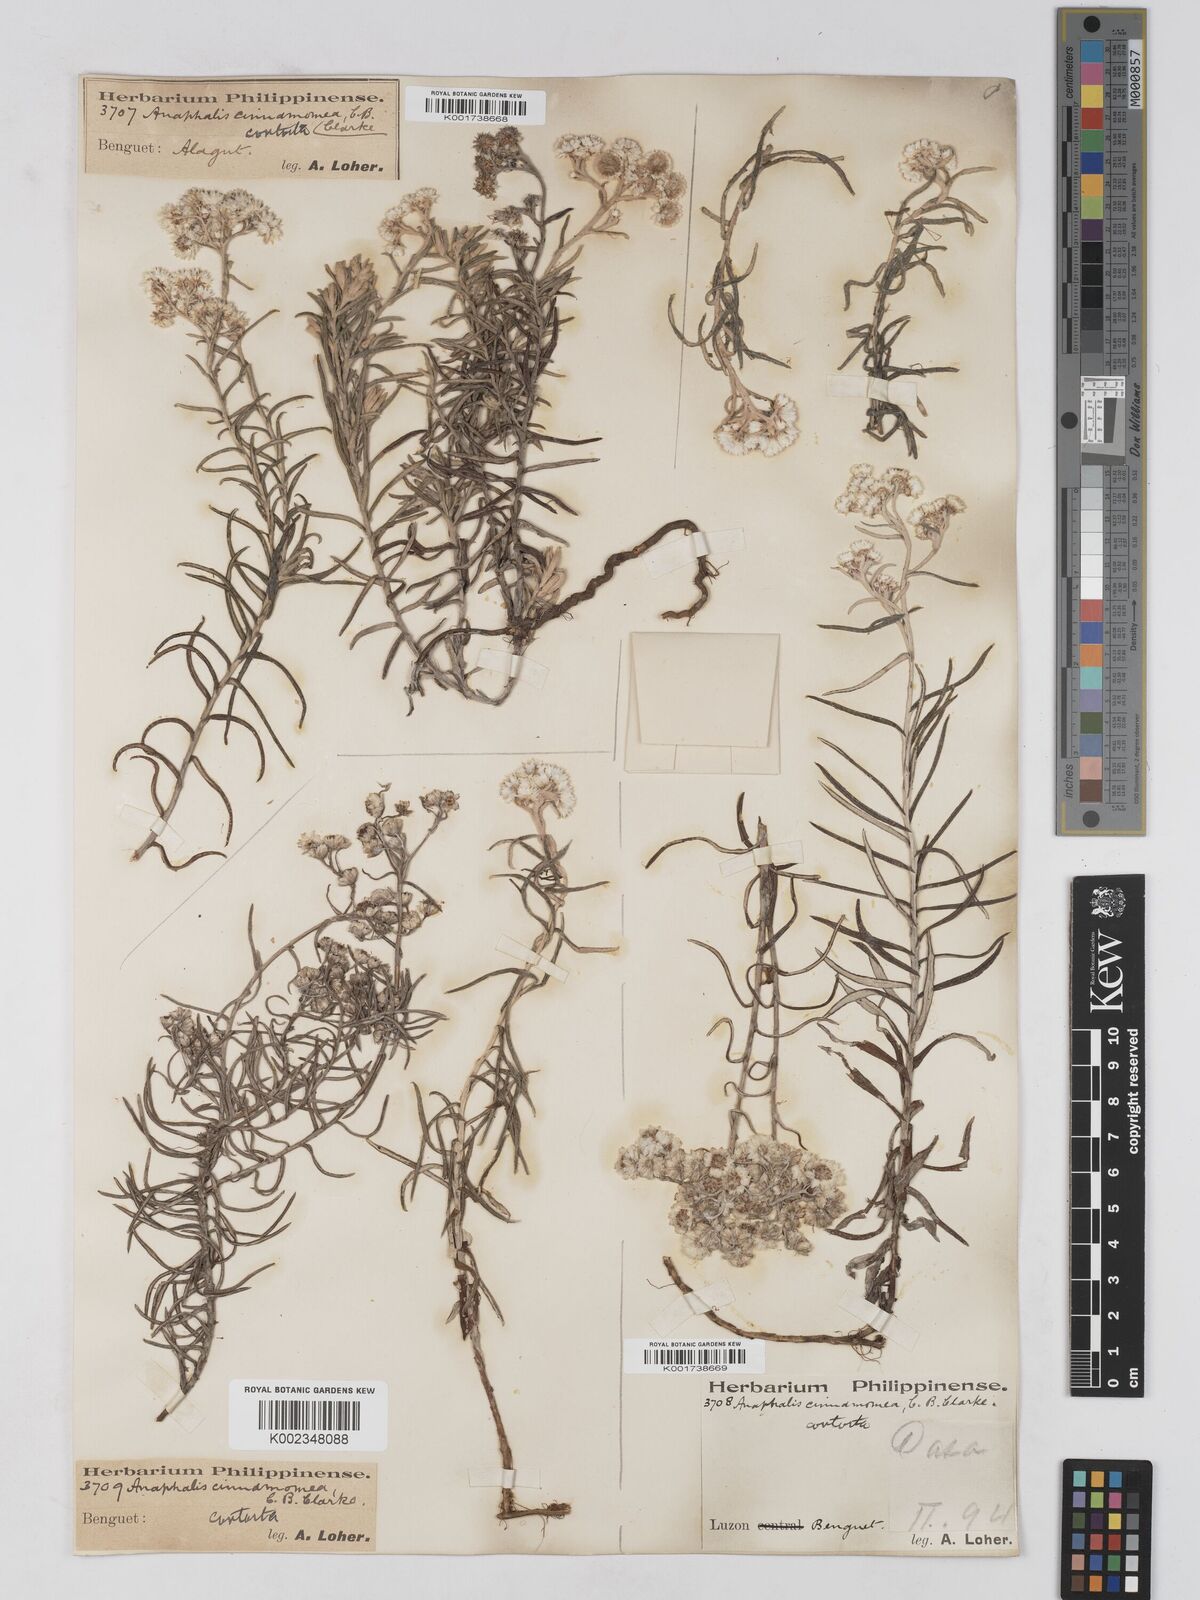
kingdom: Plantae
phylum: Tracheophyta
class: Magnoliopsida
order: Asterales
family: Asteraceae
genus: Anaphalis
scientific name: Anaphalis contorta
